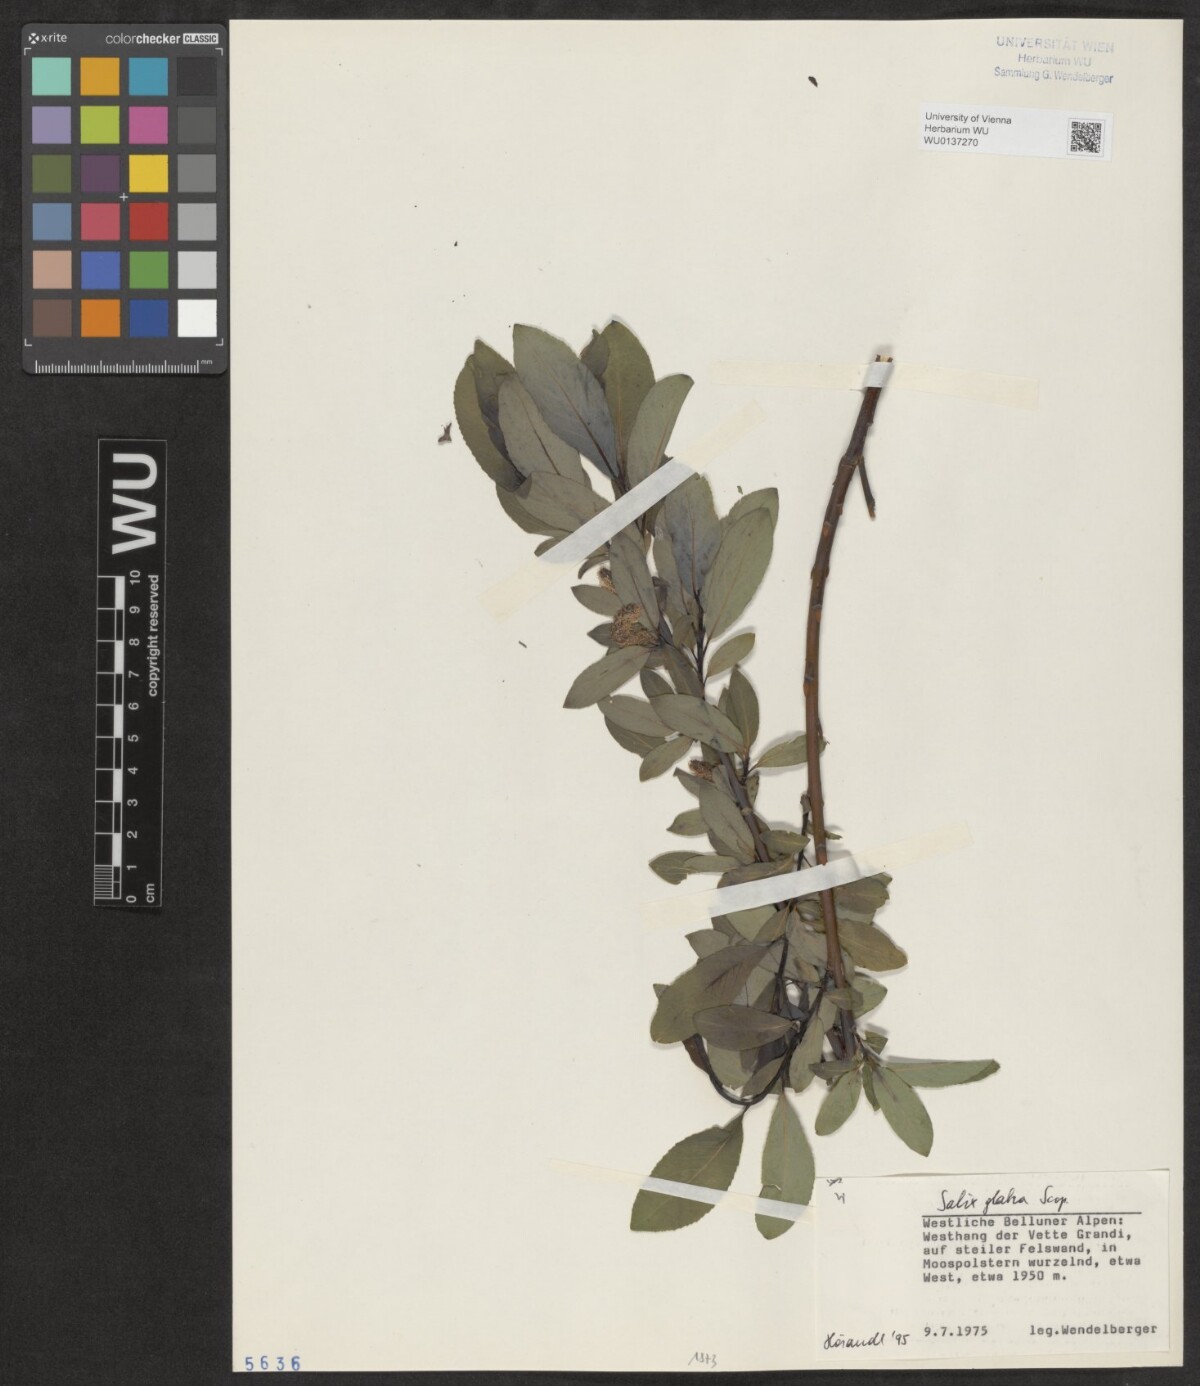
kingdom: Plantae
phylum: Tracheophyta
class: Magnoliopsida
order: Malpighiales
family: Salicaceae
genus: Salix
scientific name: Salix glabra
